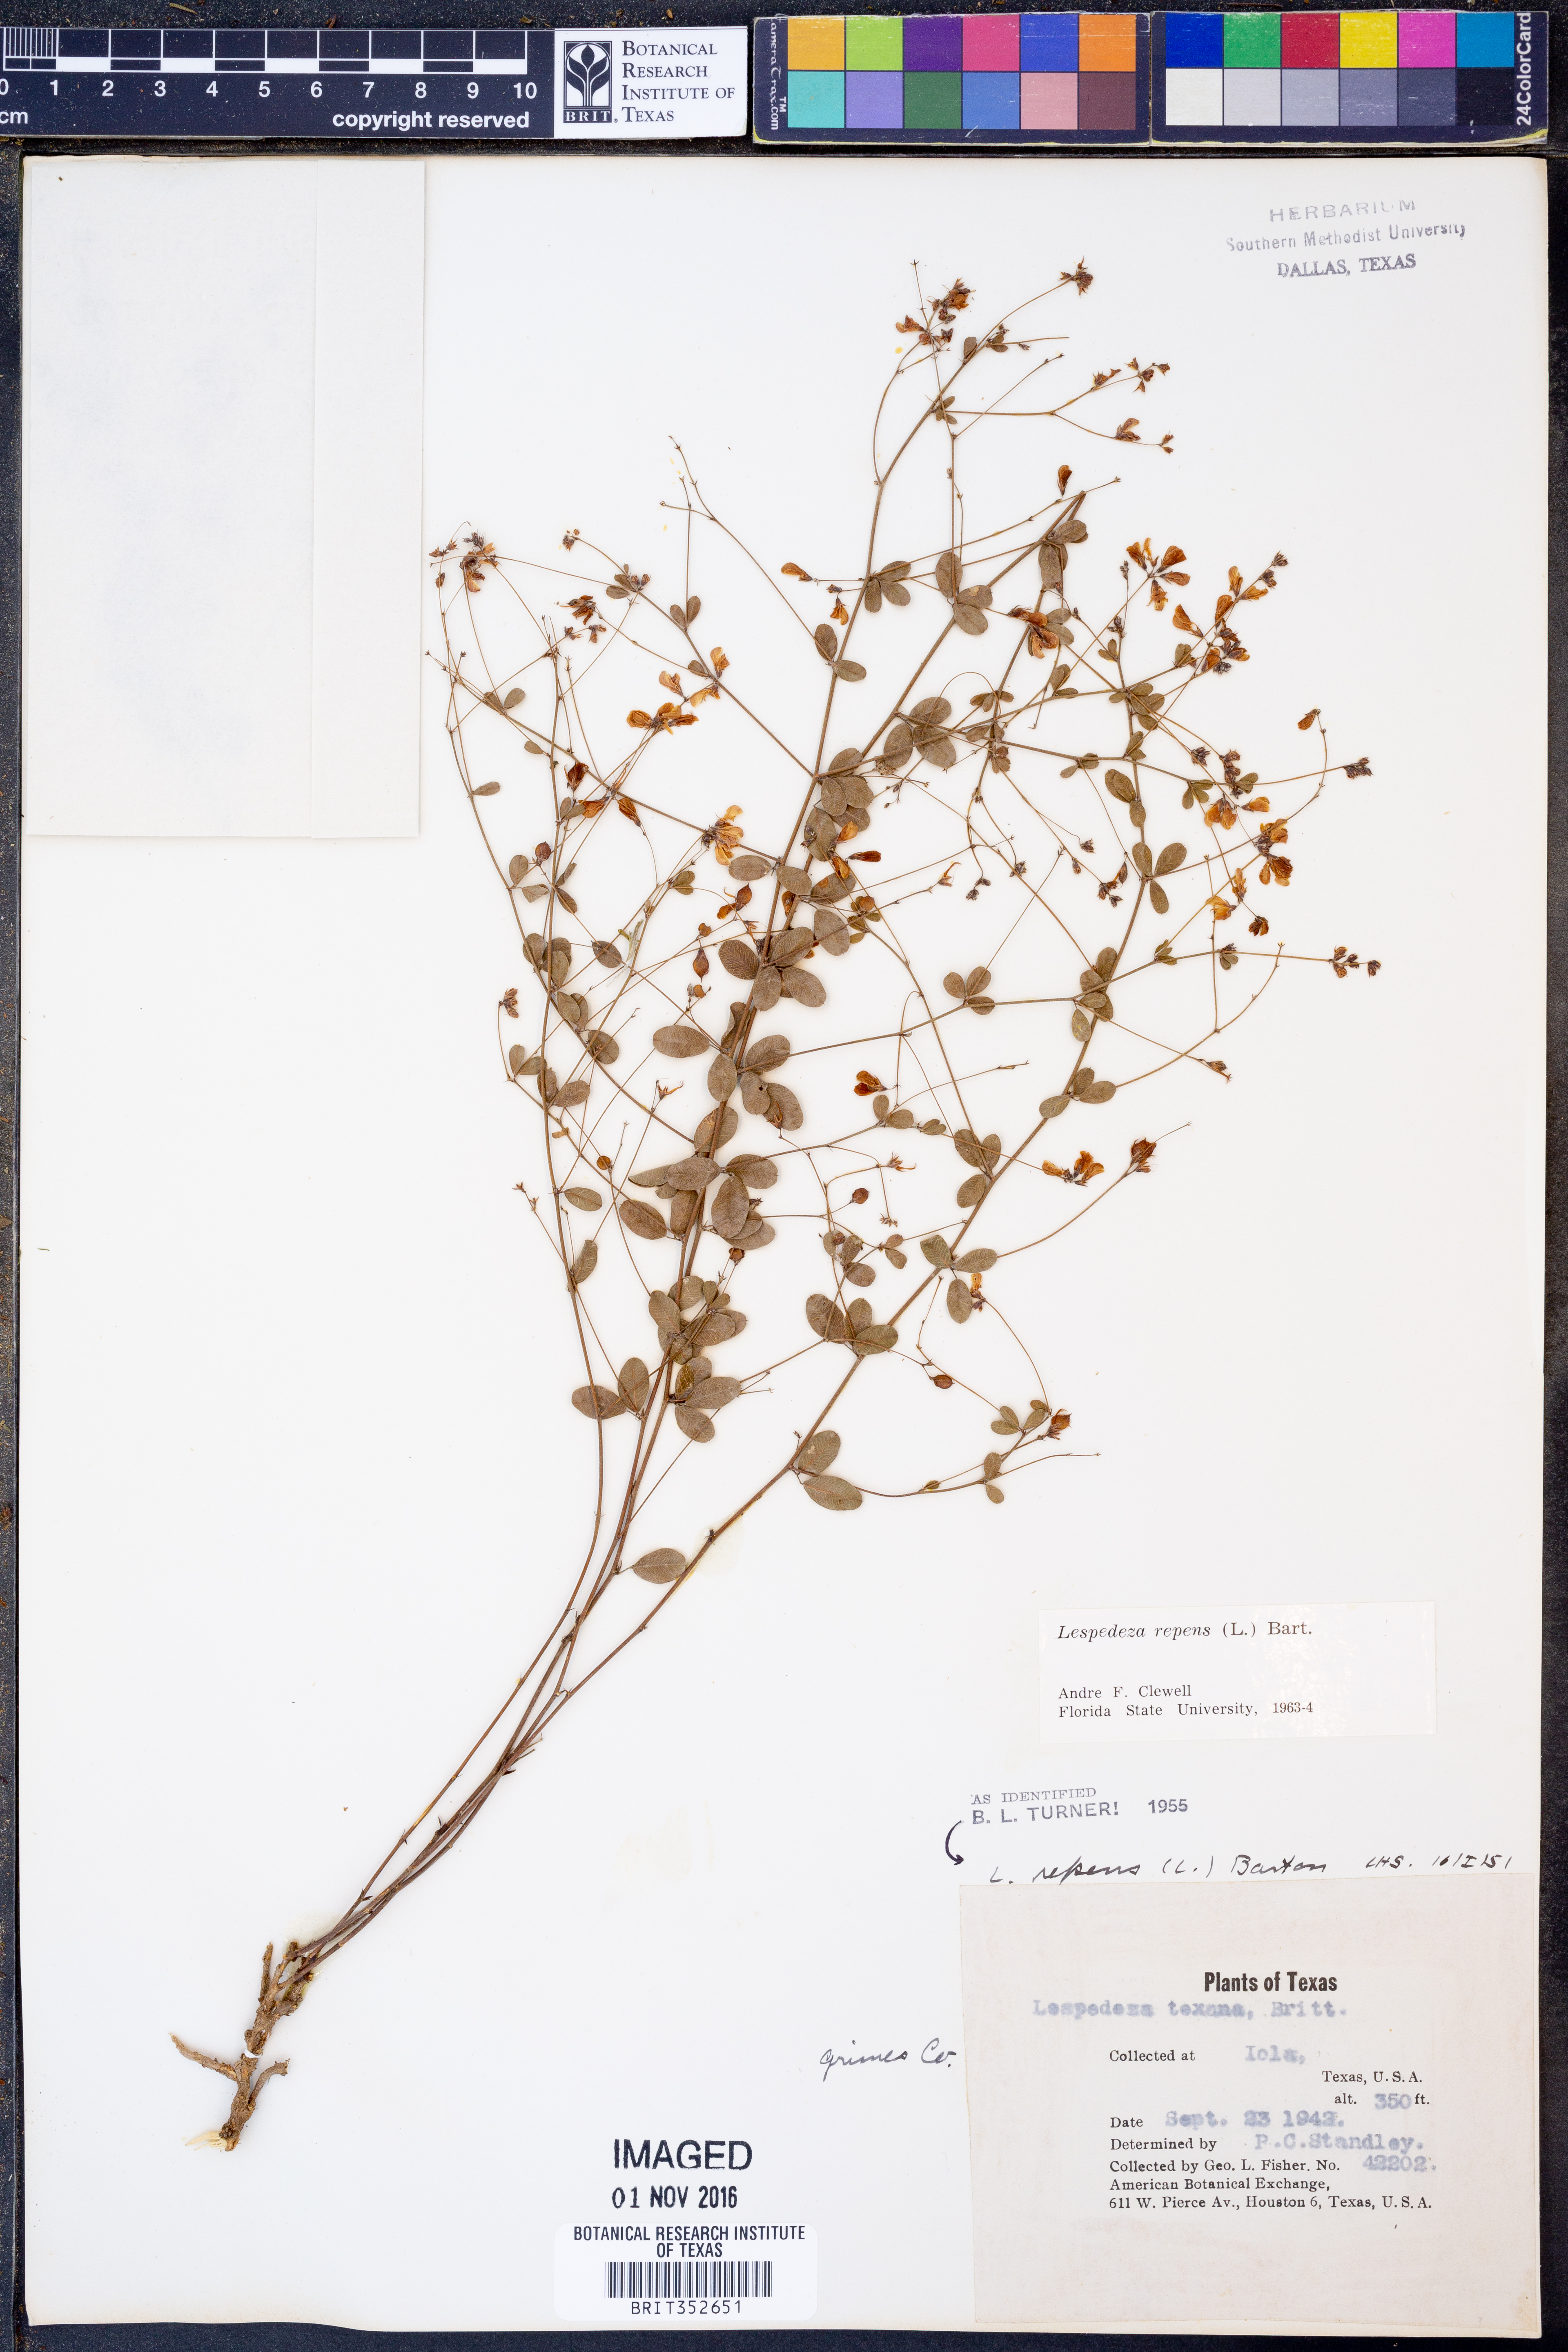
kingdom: Plantae
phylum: Tracheophyta
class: Magnoliopsida
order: Fabales
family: Fabaceae
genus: Lespedeza
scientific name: Lespedeza repens
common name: Creeping bush-clover
